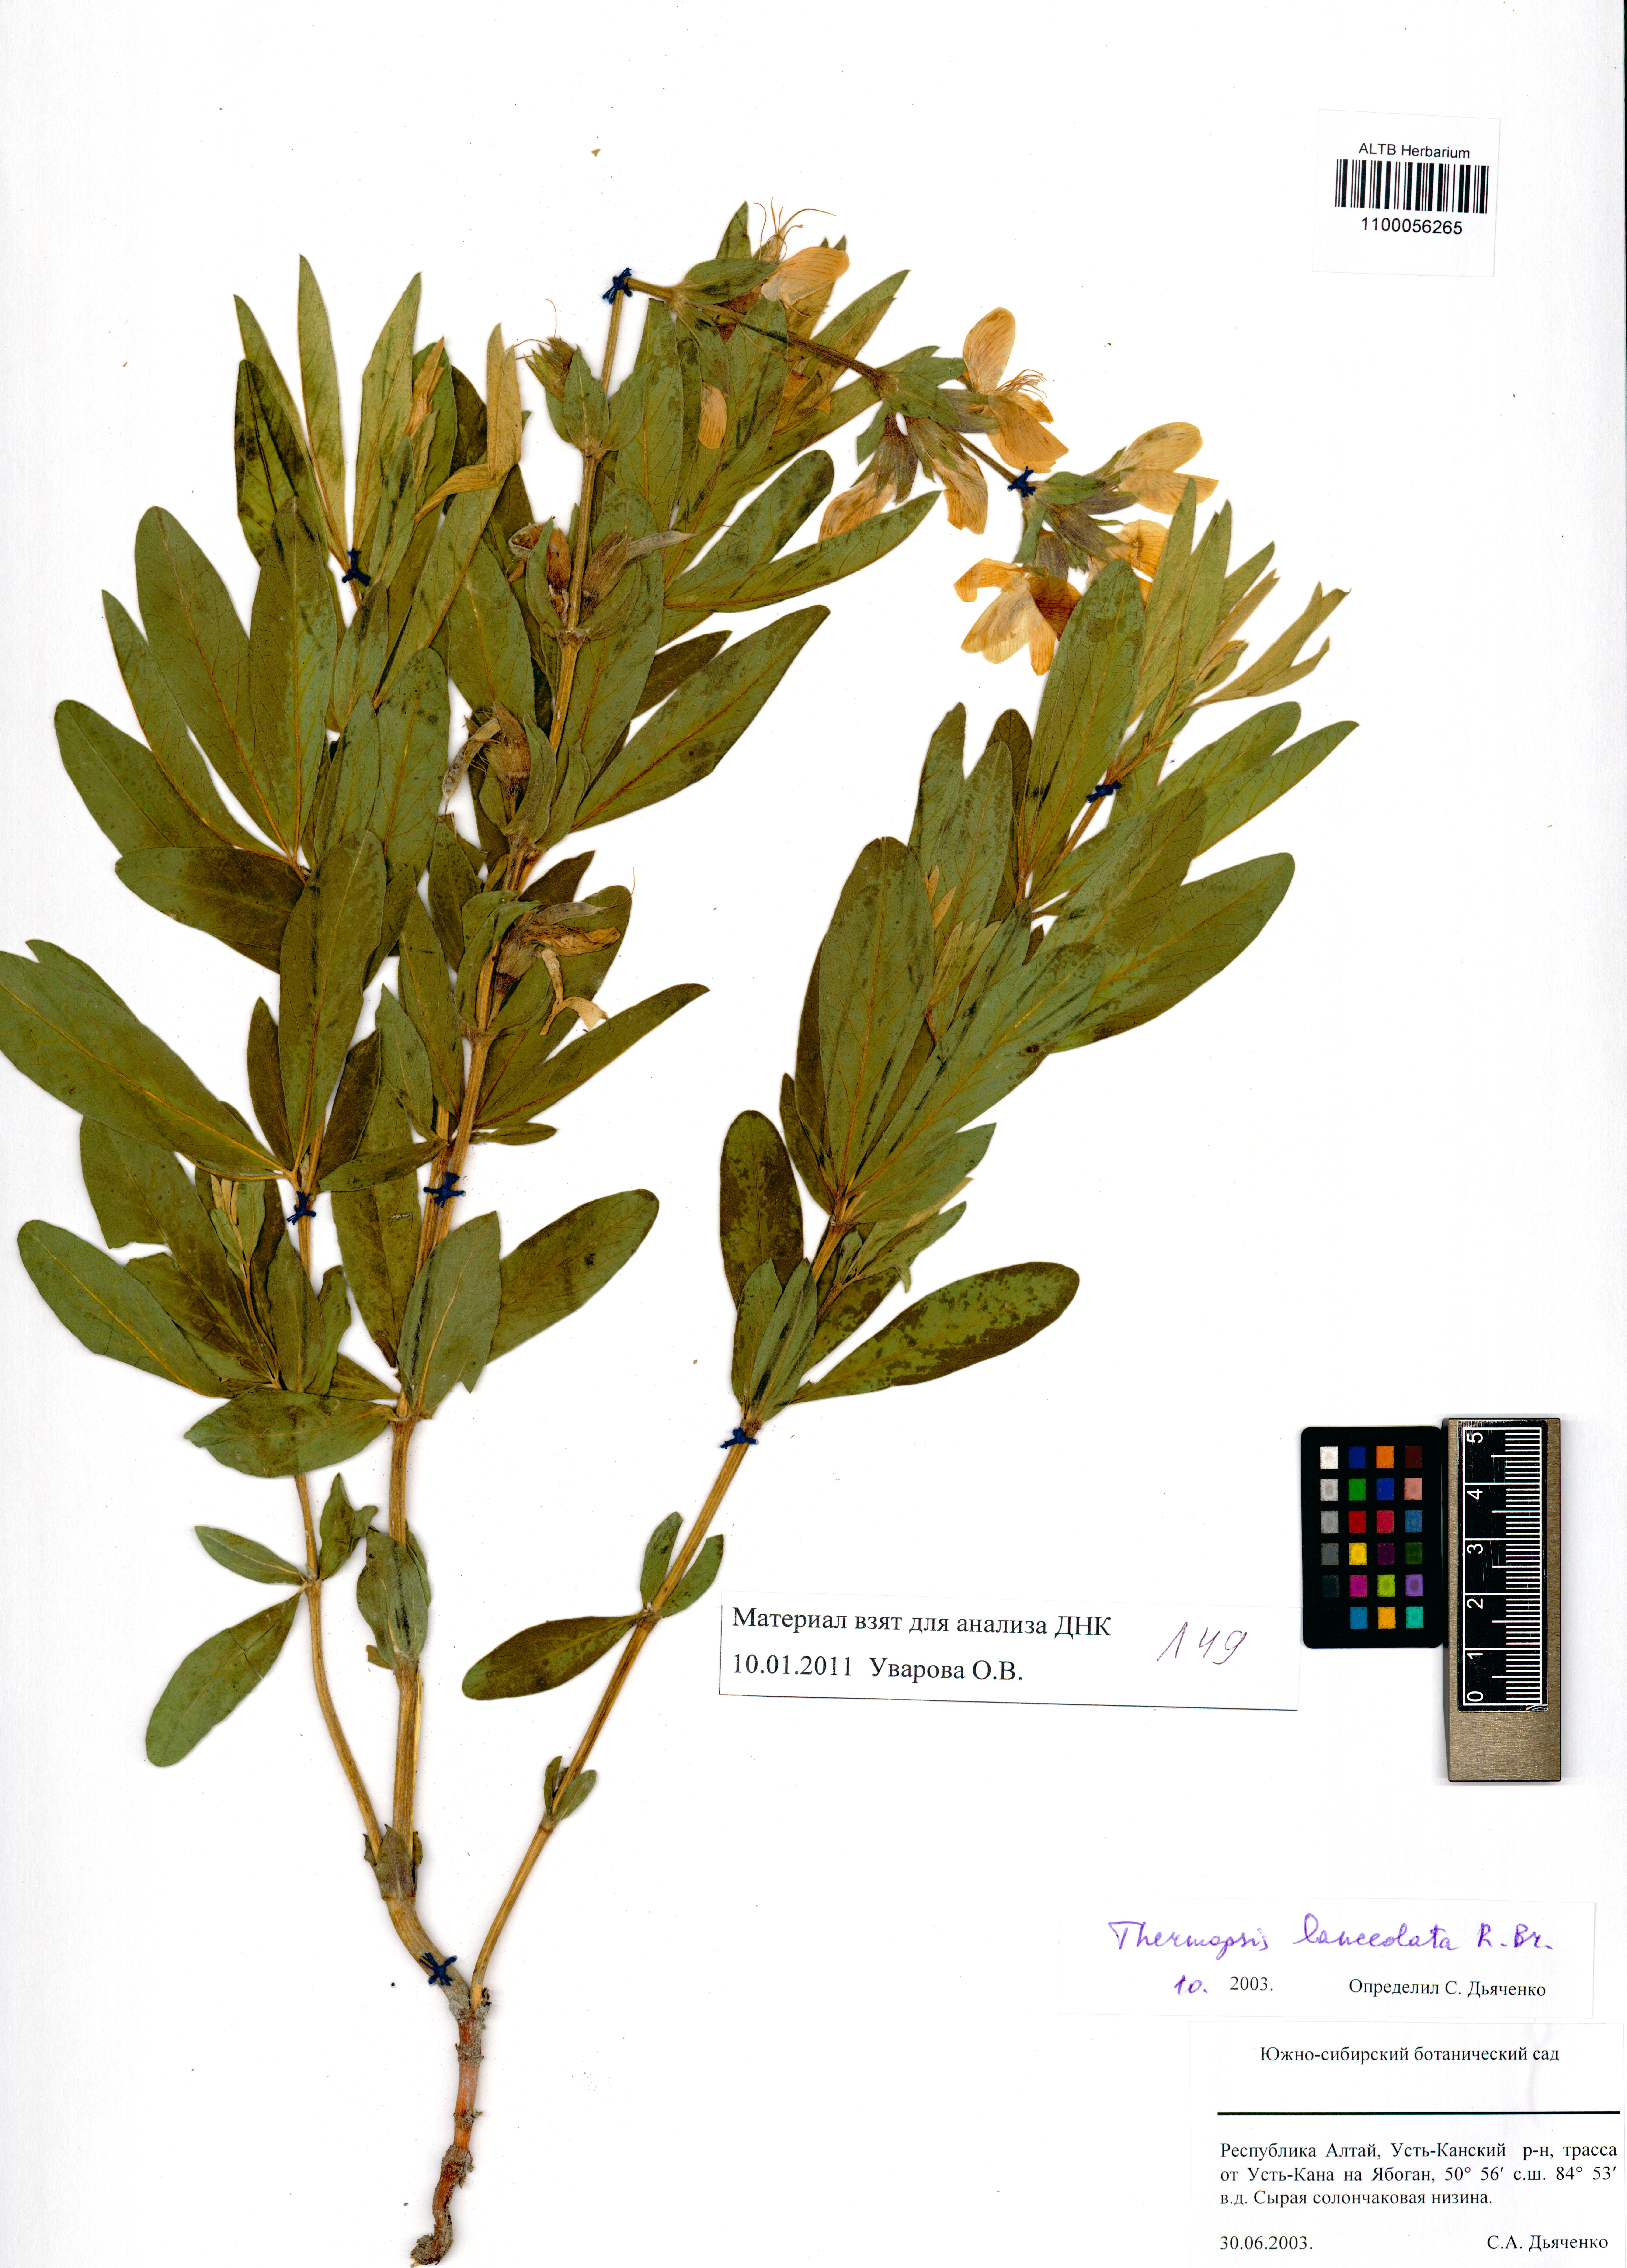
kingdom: Plantae
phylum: Tracheophyta
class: Magnoliopsida
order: Fabales
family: Fabaceae
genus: Thermopsis
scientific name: Thermopsis lanceolata
